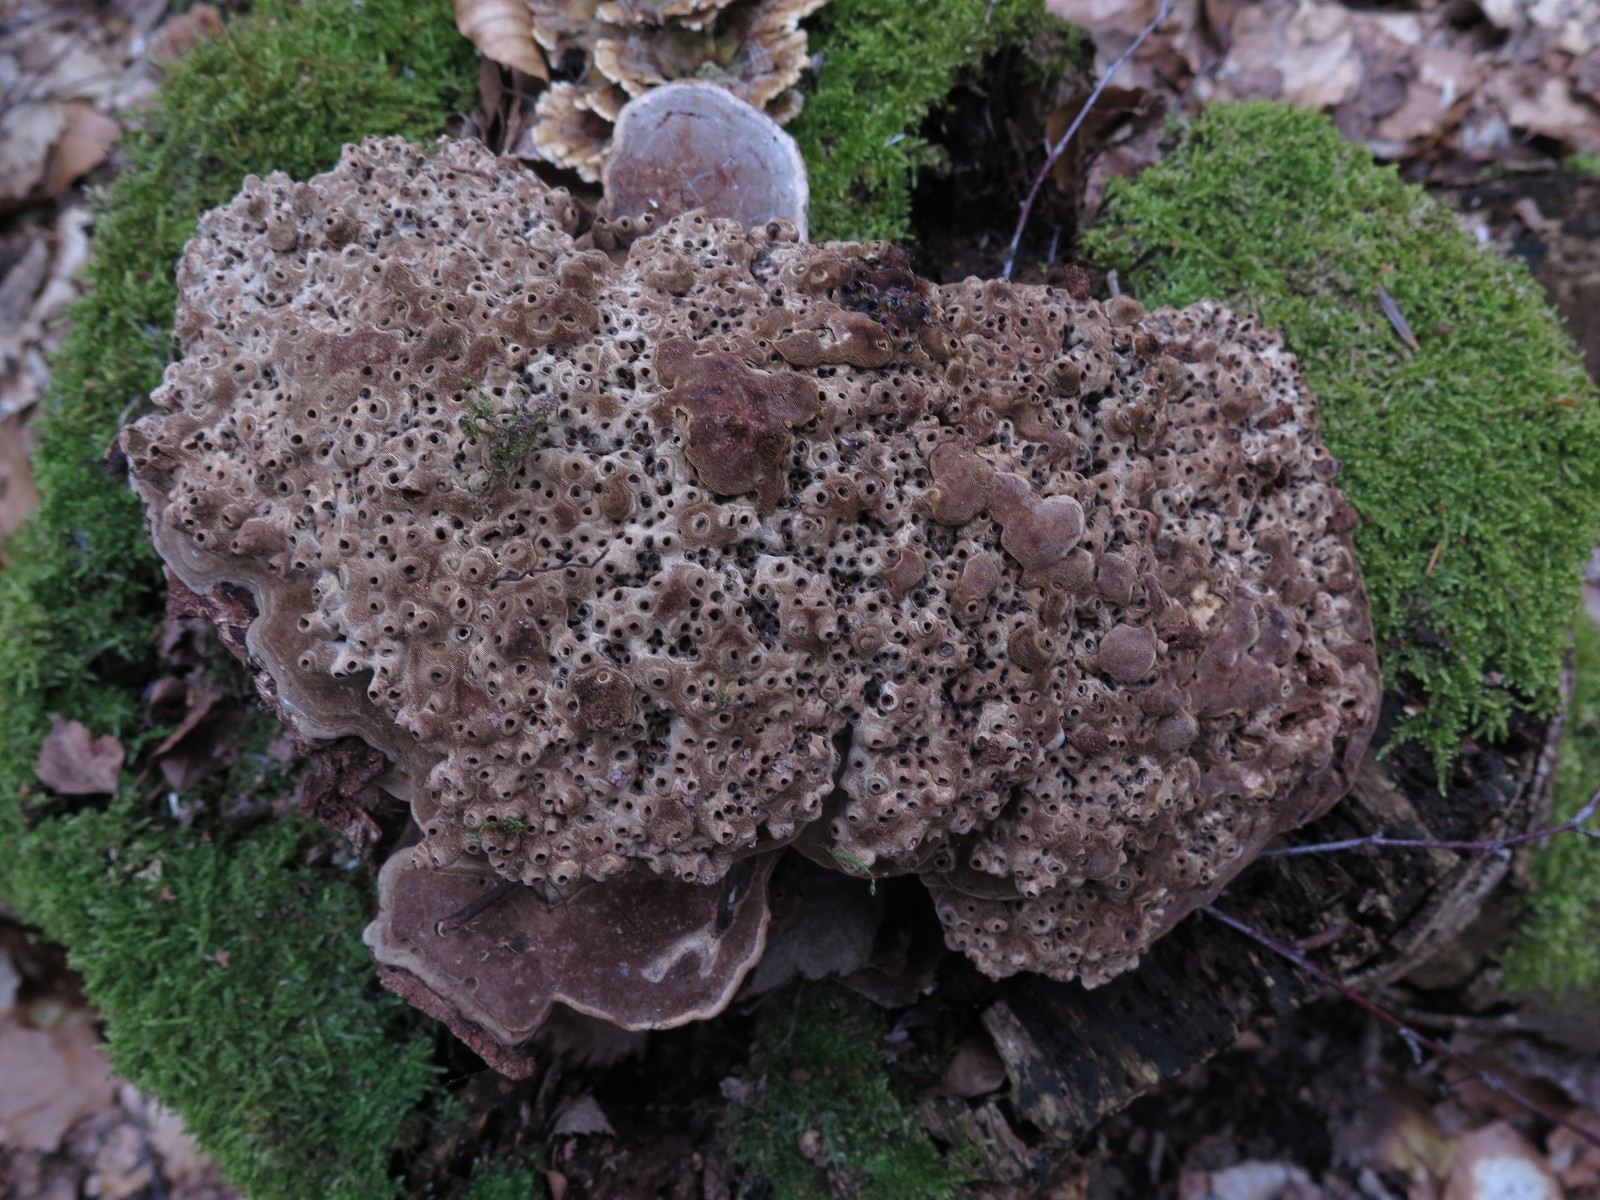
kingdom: Fungi
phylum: Basidiomycota
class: Agaricomycetes
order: Polyporales
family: Polyporaceae
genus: Ganoderma
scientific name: Ganoderma applanatum
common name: flad lakporesvamp
